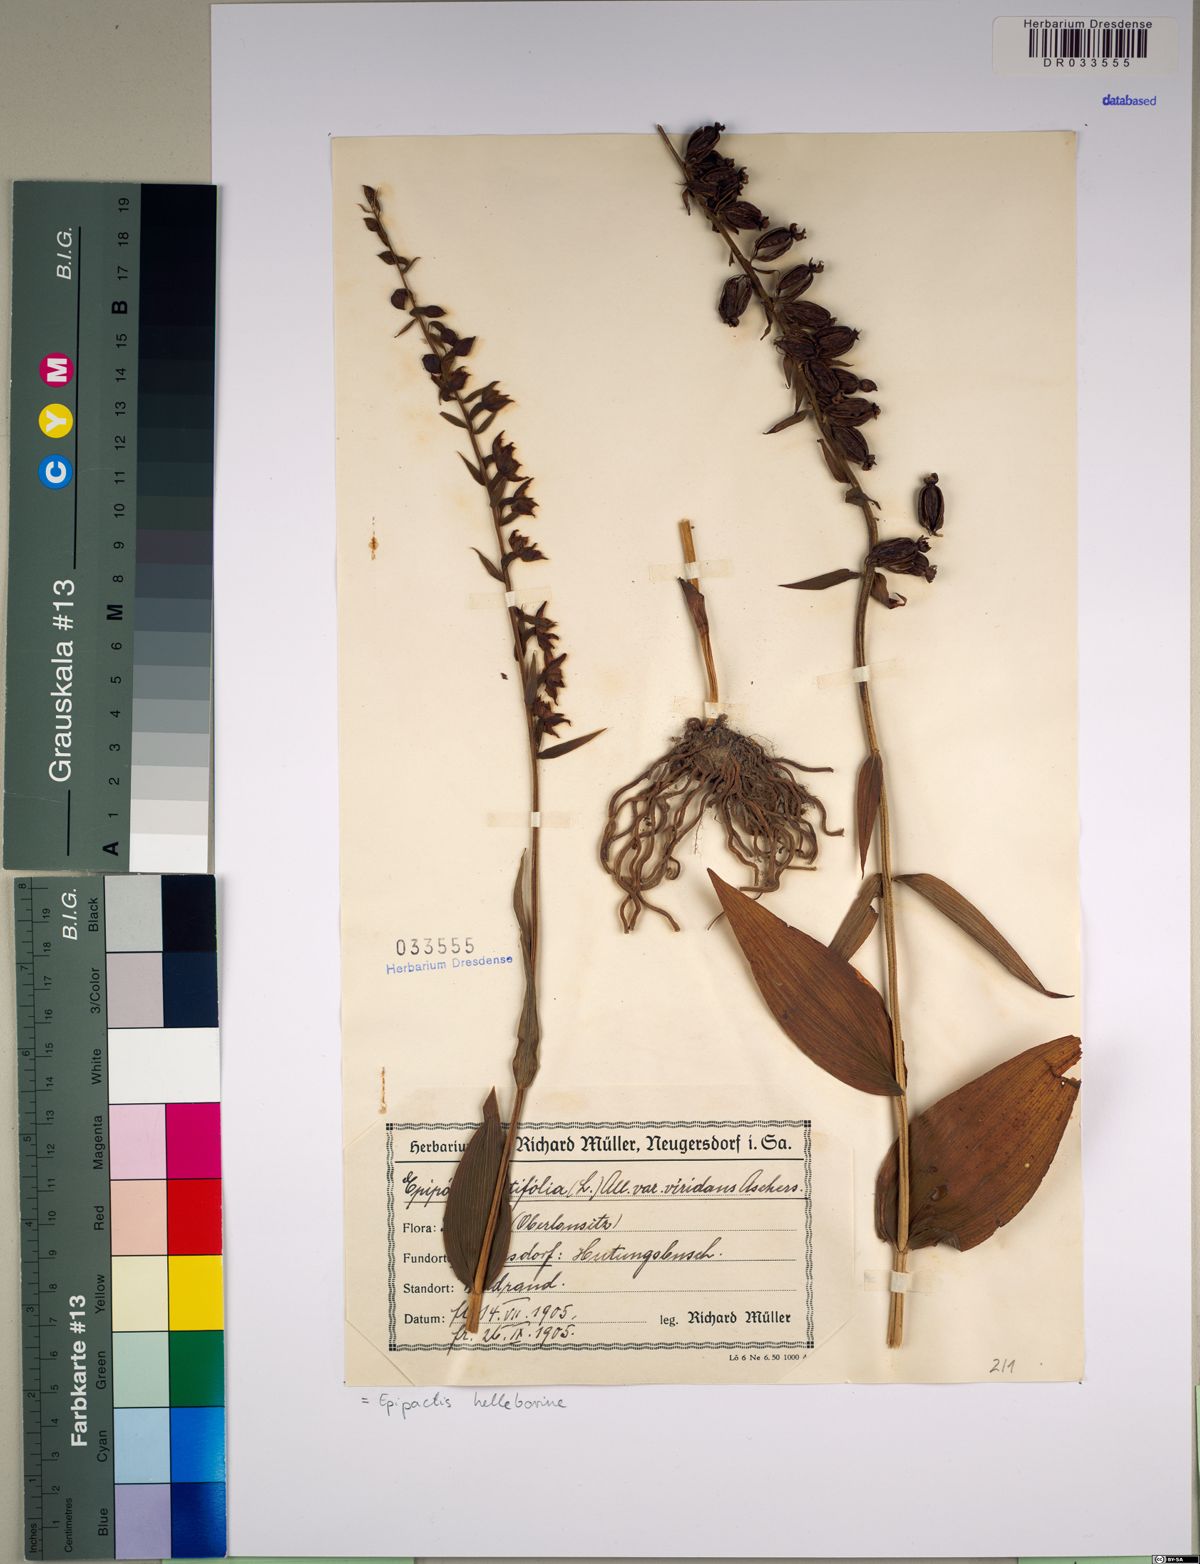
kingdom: Plantae
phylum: Tracheophyta
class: Liliopsida
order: Asparagales
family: Orchidaceae
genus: Epipactis
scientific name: Epipactis helleborine
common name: Broad-leaved helleborine
